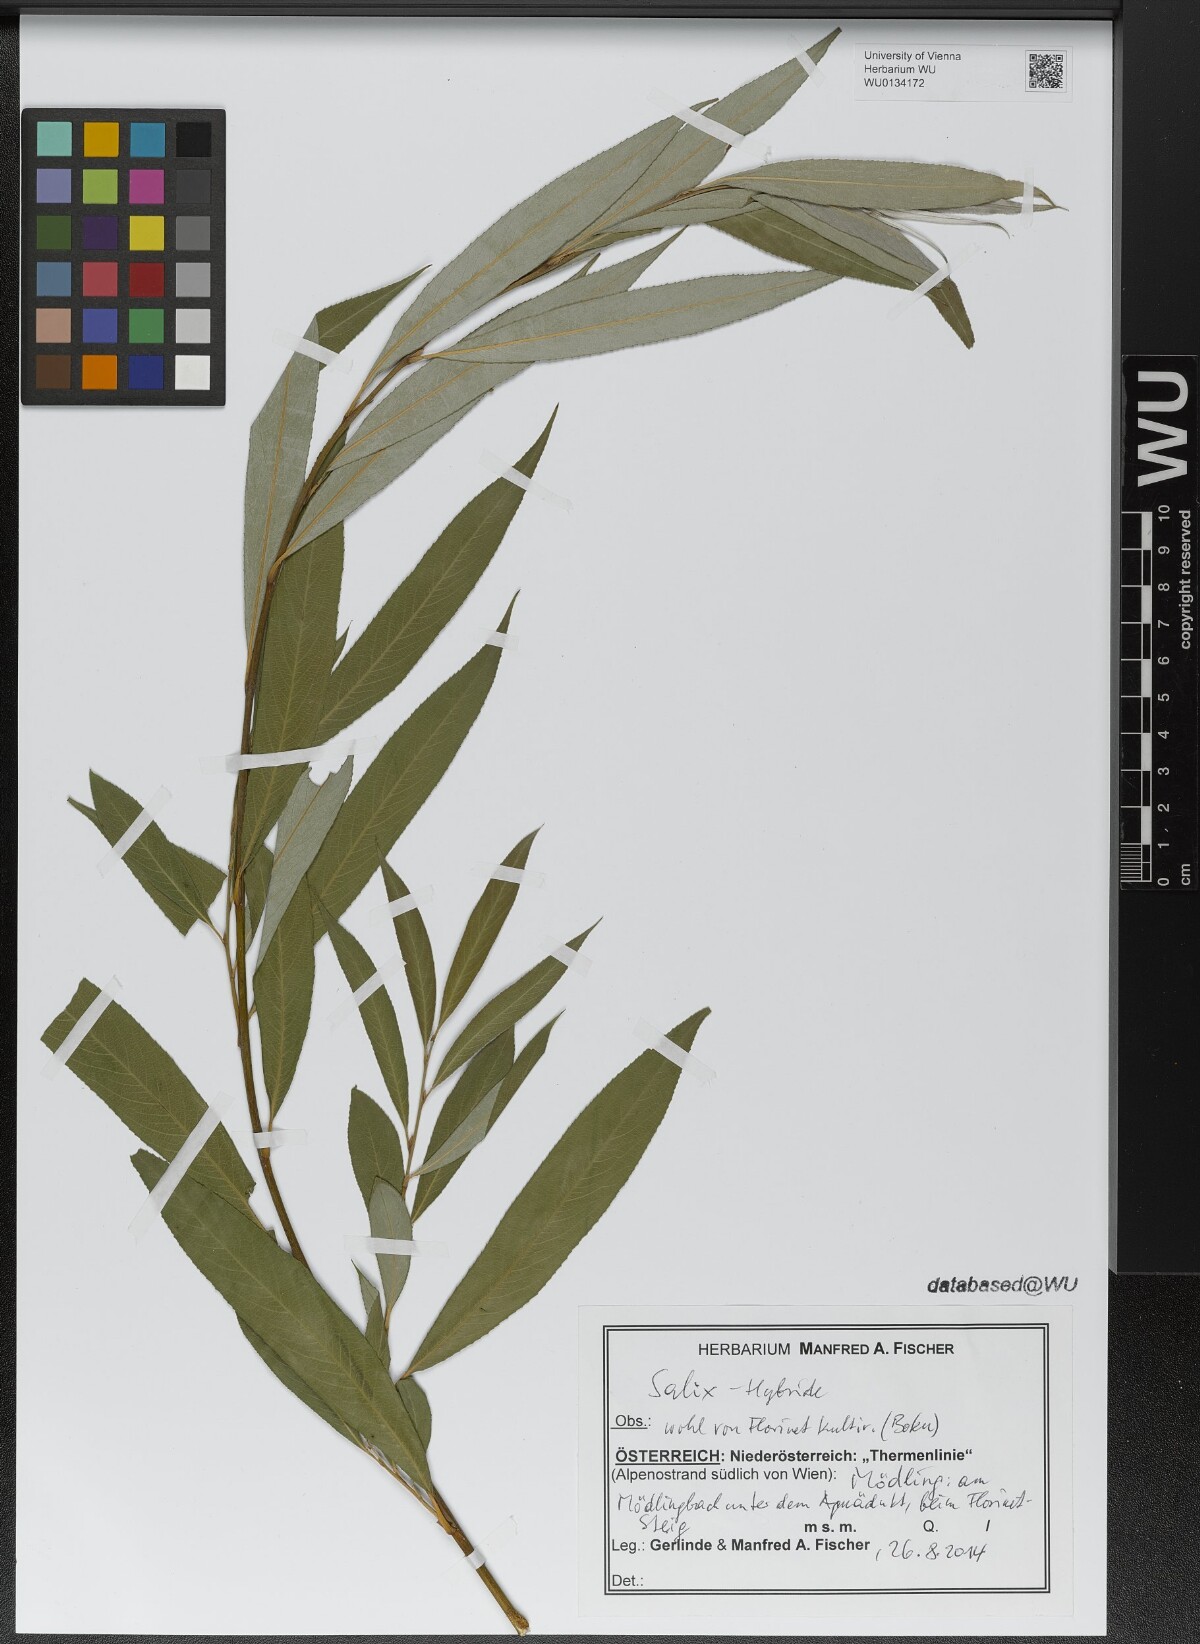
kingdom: Plantae
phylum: Tracheophyta
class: Magnoliopsida
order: Malpighiales
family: Salicaceae
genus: Salix
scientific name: Salix
